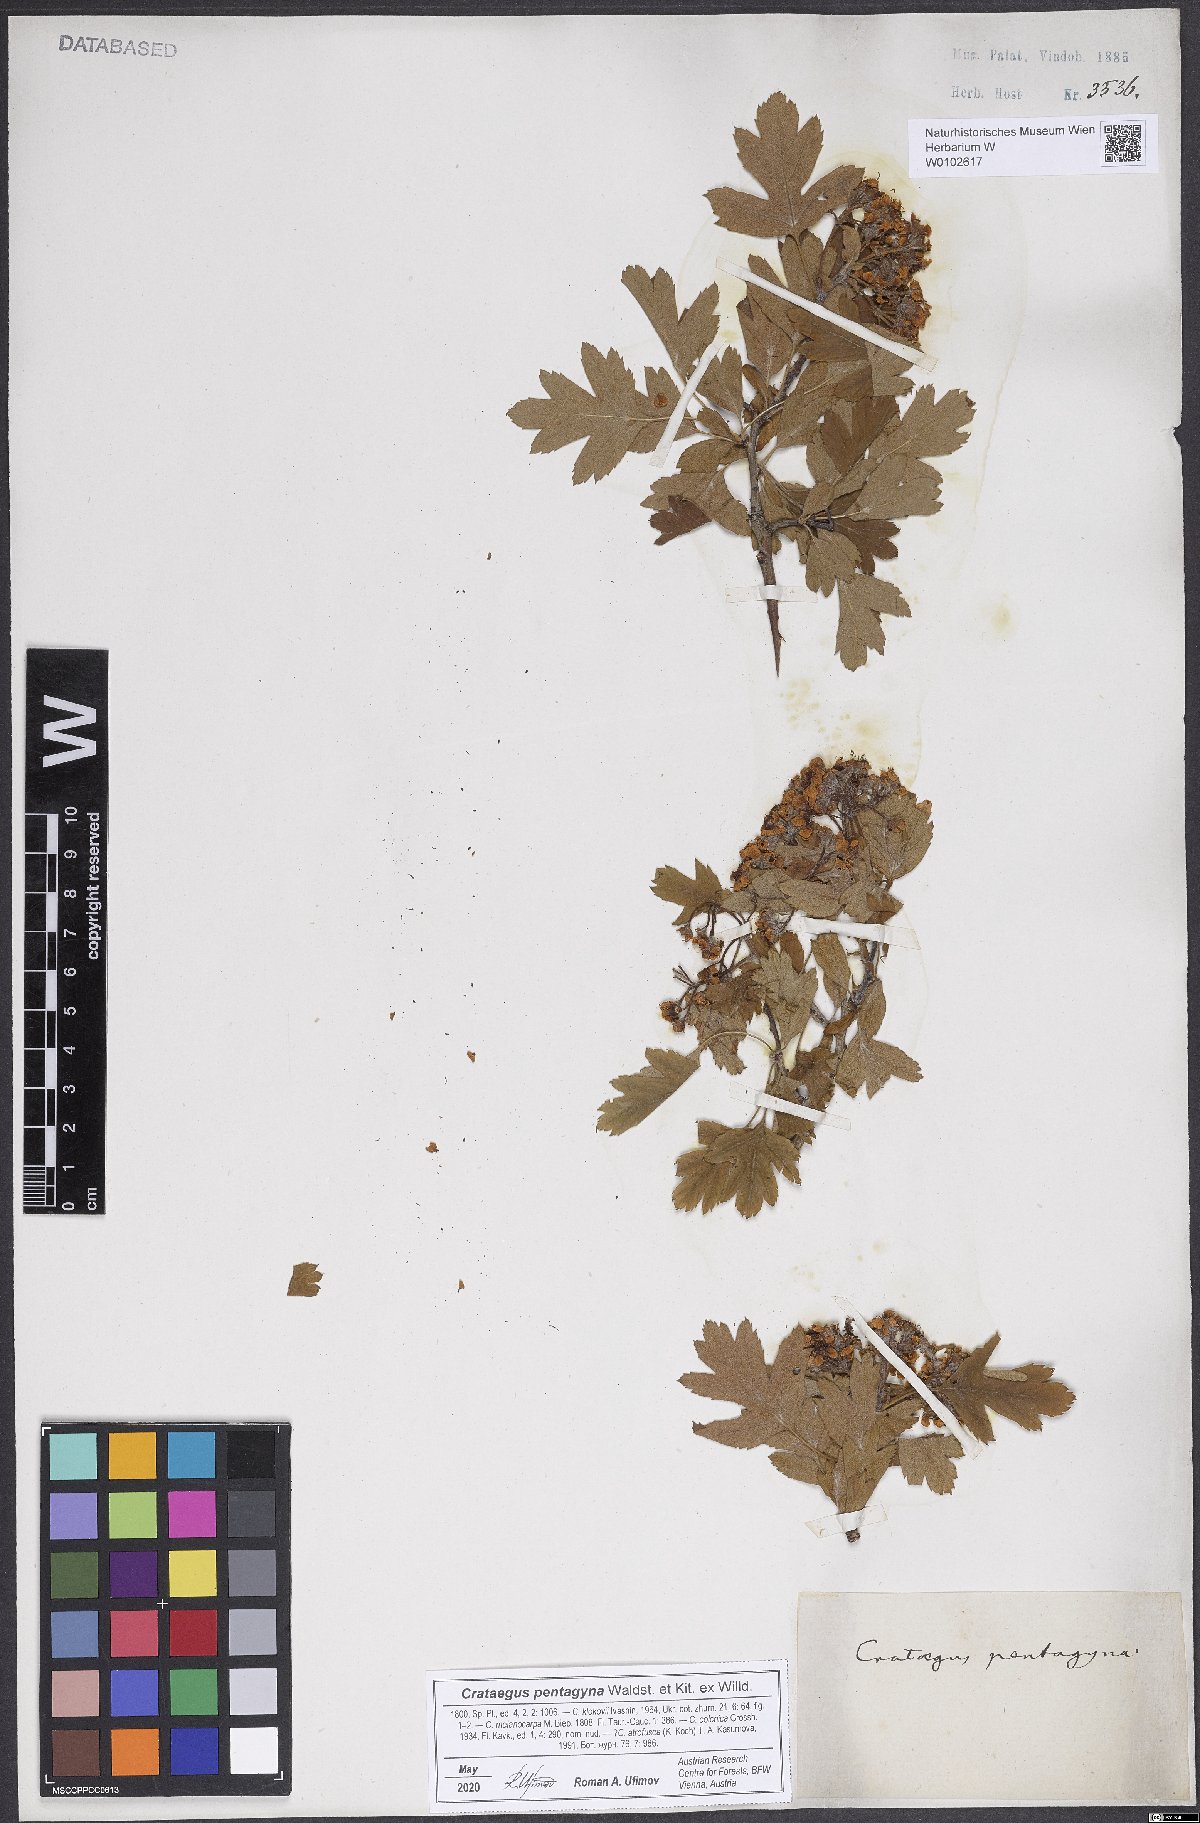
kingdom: Plantae
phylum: Tracheophyta
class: Magnoliopsida
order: Rosales
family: Rosaceae
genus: Crataegus
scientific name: Crataegus pentagyna
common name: Small-flowered black hawthorn
